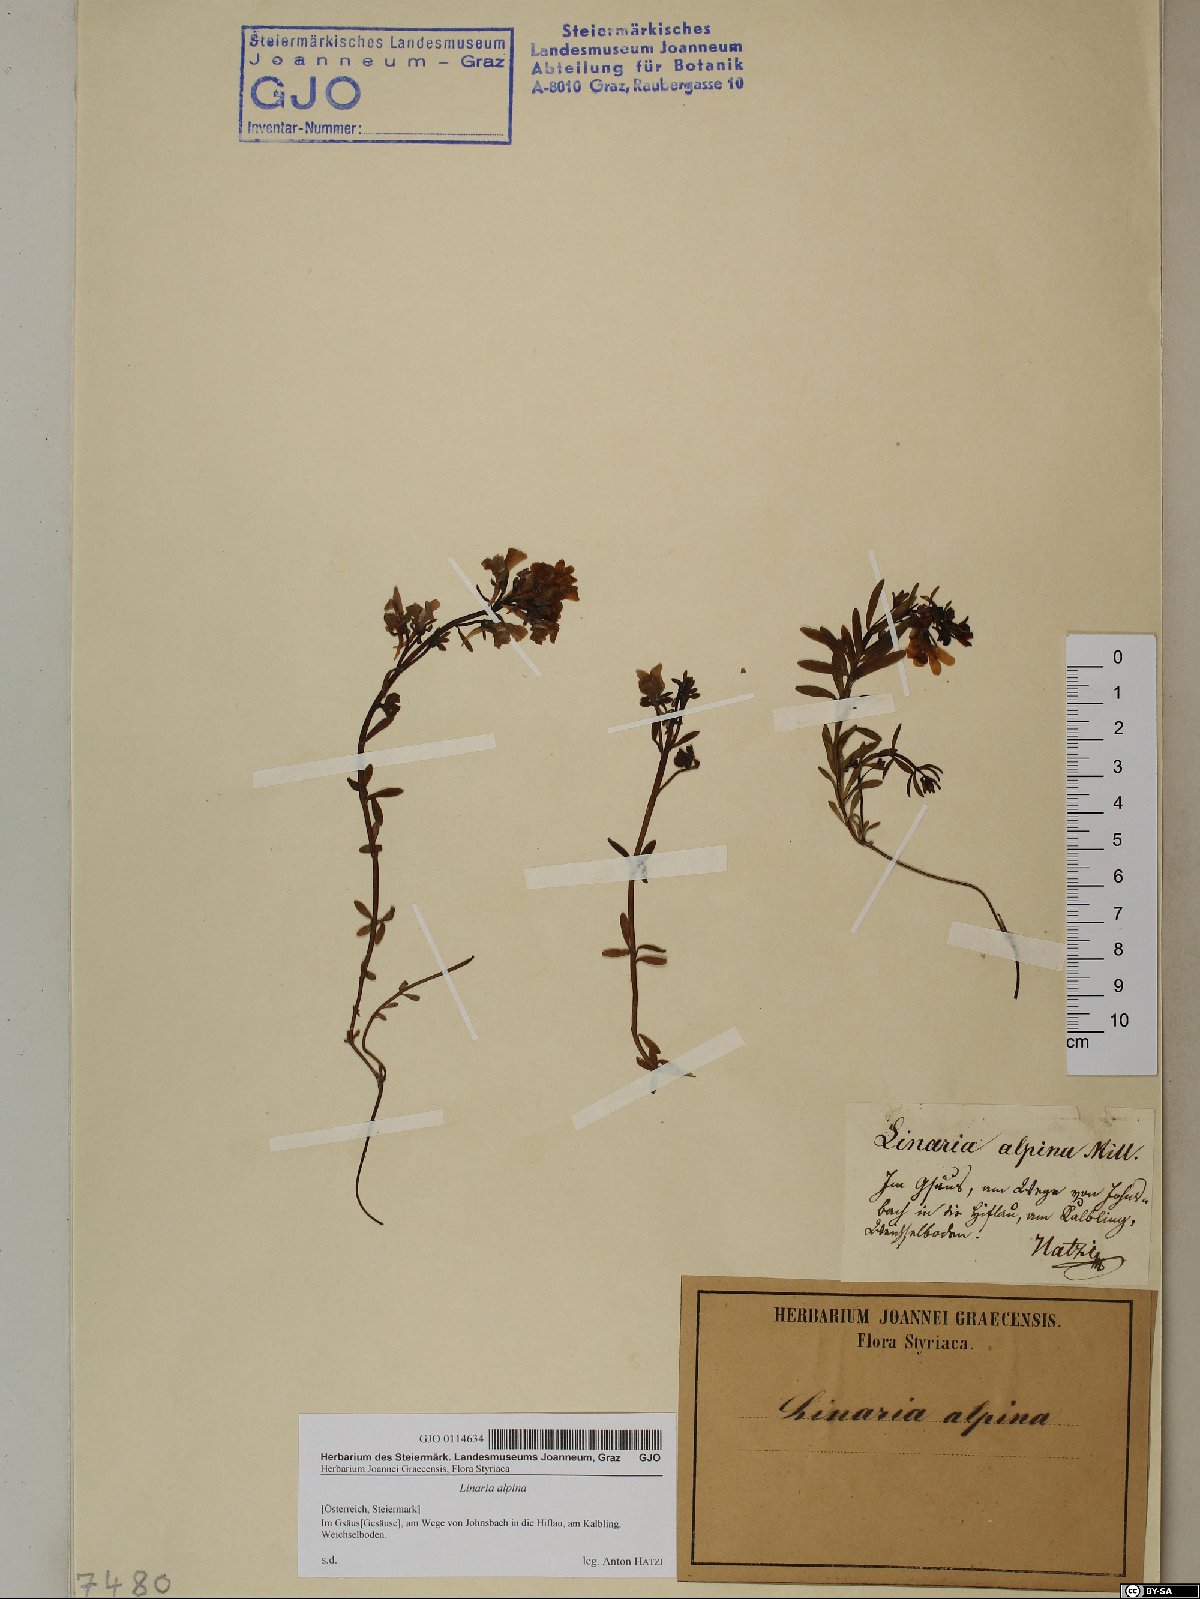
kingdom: Plantae
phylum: Tracheophyta
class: Magnoliopsida
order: Lamiales
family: Plantaginaceae
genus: Linaria
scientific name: Linaria alpina
